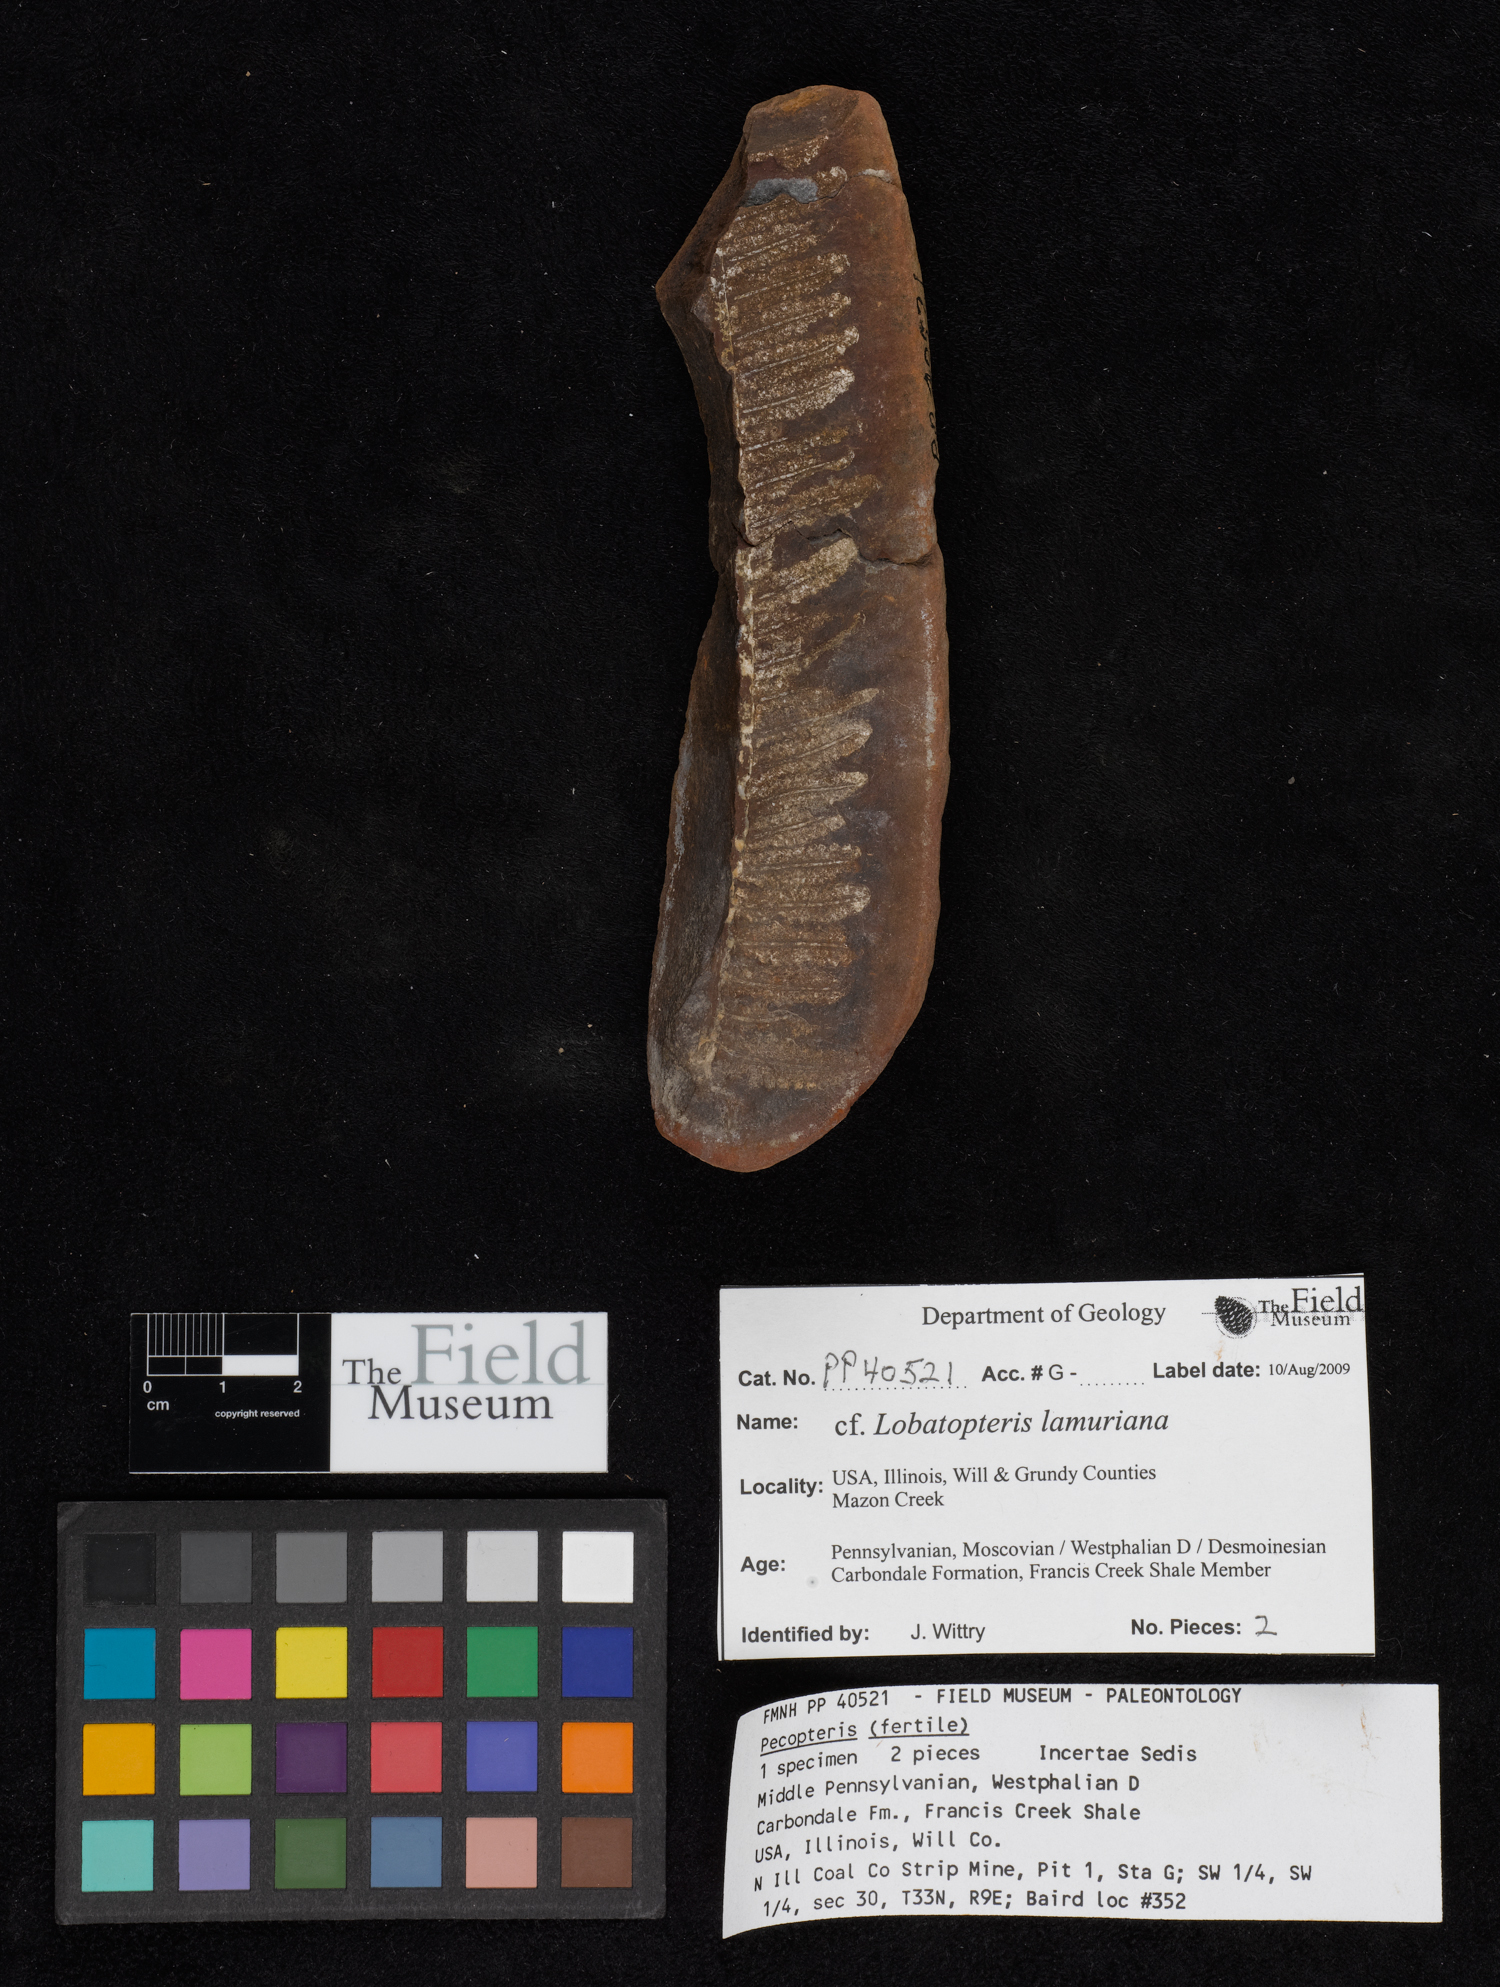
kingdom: Plantae
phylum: Tracheophyta
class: Polypodiopsida
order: Marattiales
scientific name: Marattiales
